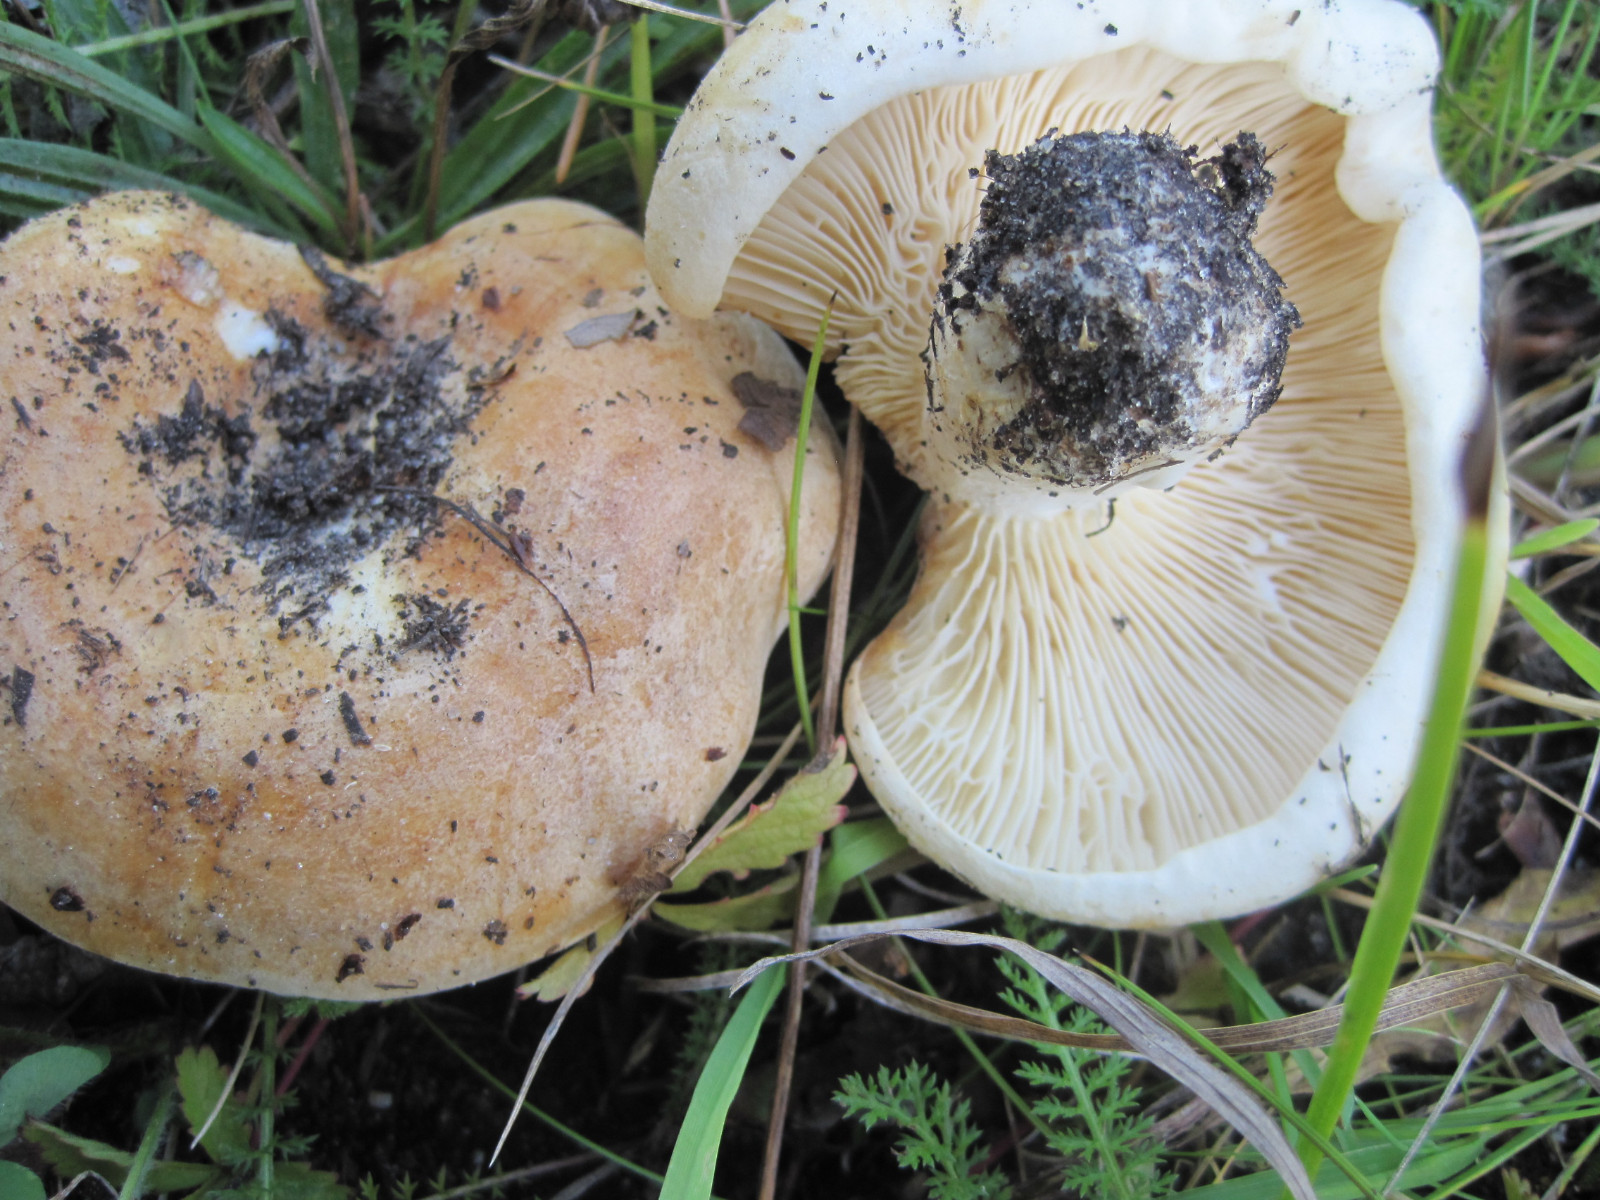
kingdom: Fungi
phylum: Basidiomycota
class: Agaricomycetes
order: Russulales
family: Russulaceae
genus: Lactarius
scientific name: Lactarius evosmus
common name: bæltet mælkehat
